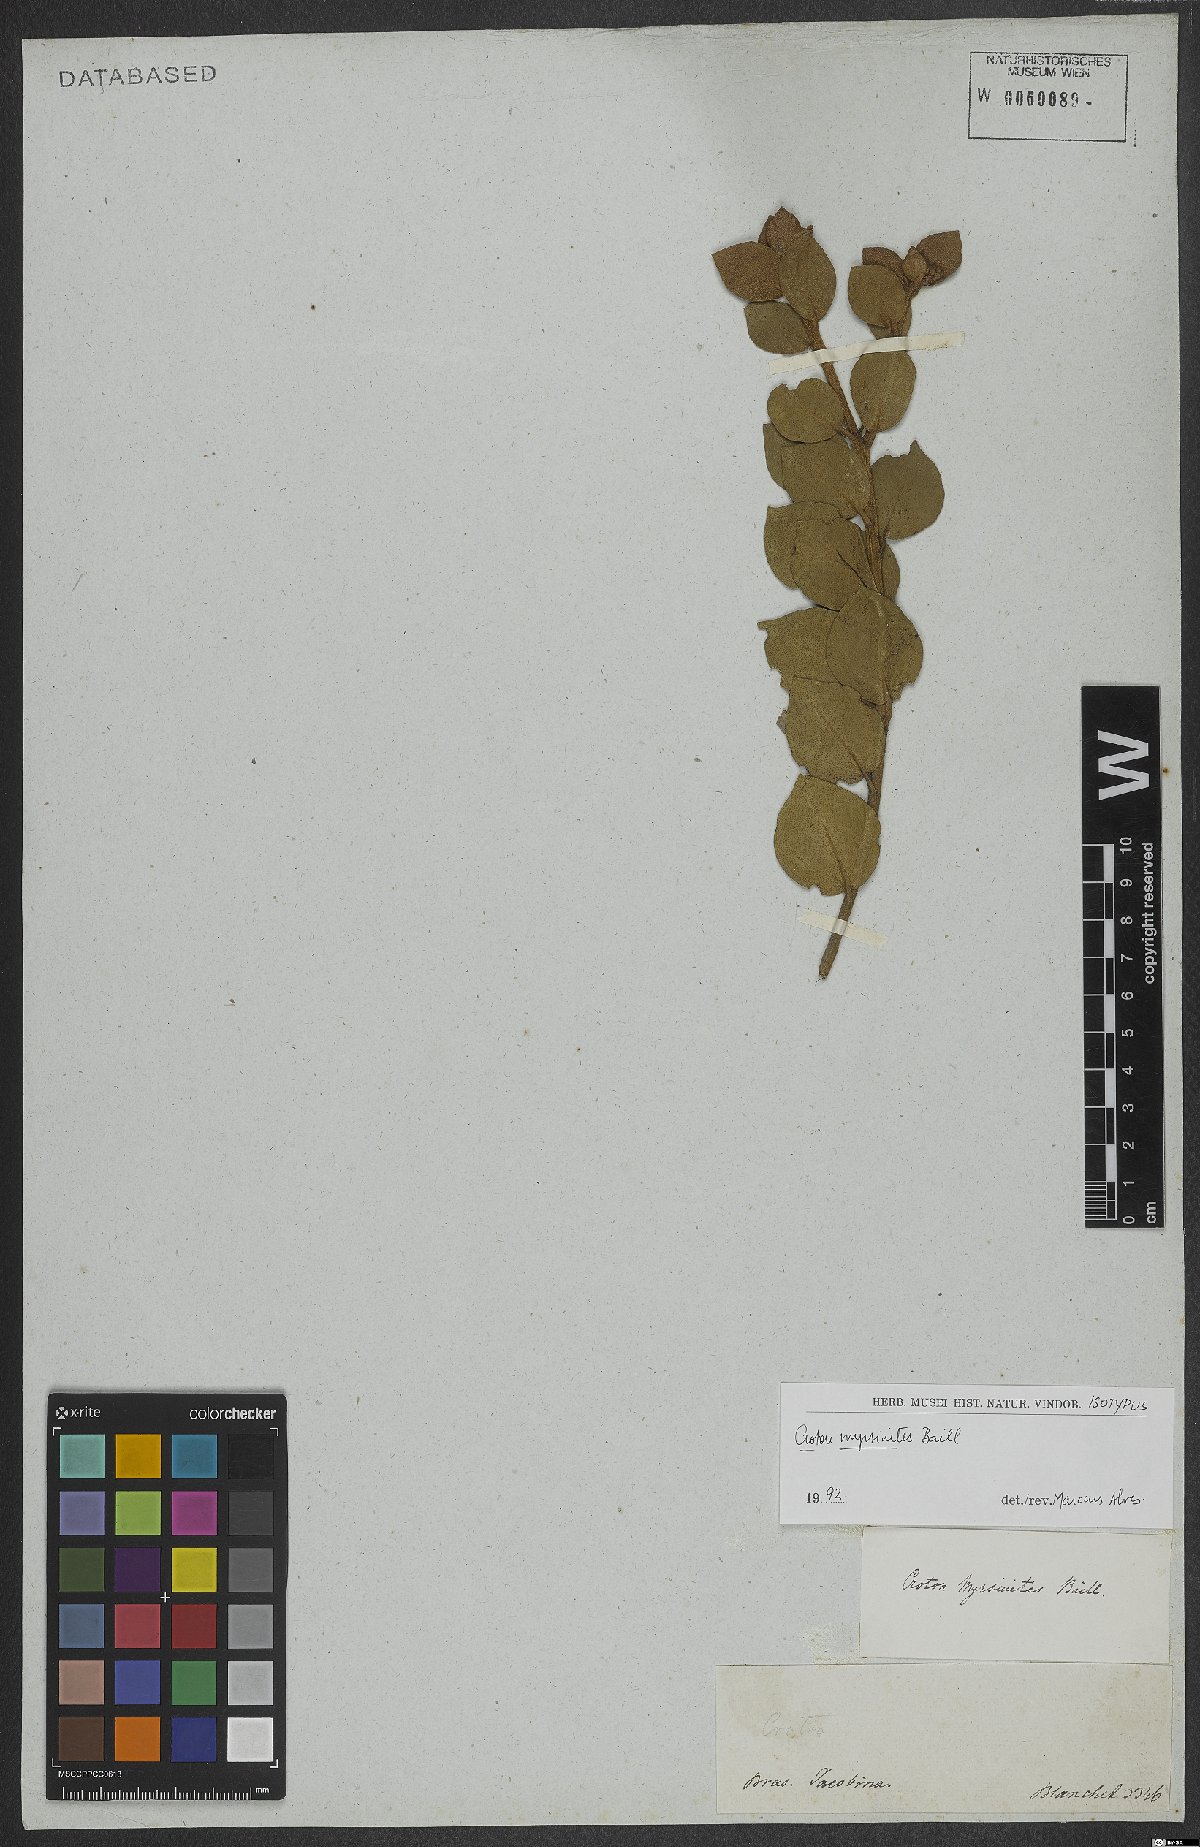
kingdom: Plantae
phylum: Tracheophyta
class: Magnoliopsida
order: Malpighiales
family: Euphorbiaceae
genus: Croton
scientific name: Croton myrsinites
